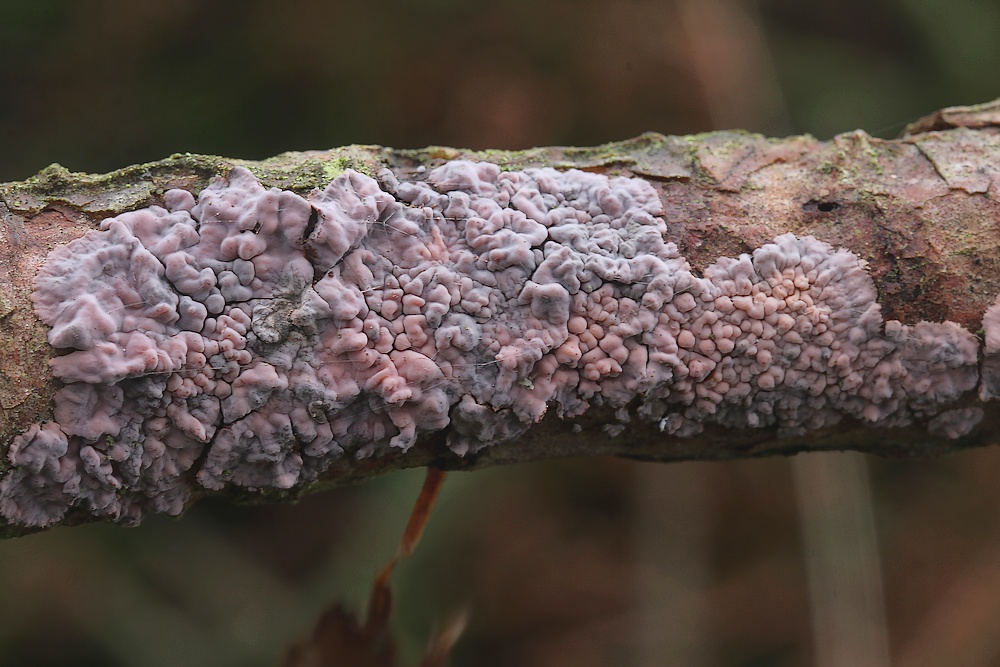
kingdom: Fungi
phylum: Basidiomycota
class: Agaricomycetes
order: Russulales
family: Peniophoraceae
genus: Peniophora
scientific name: Peniophora pini
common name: fyrre-voksskind
